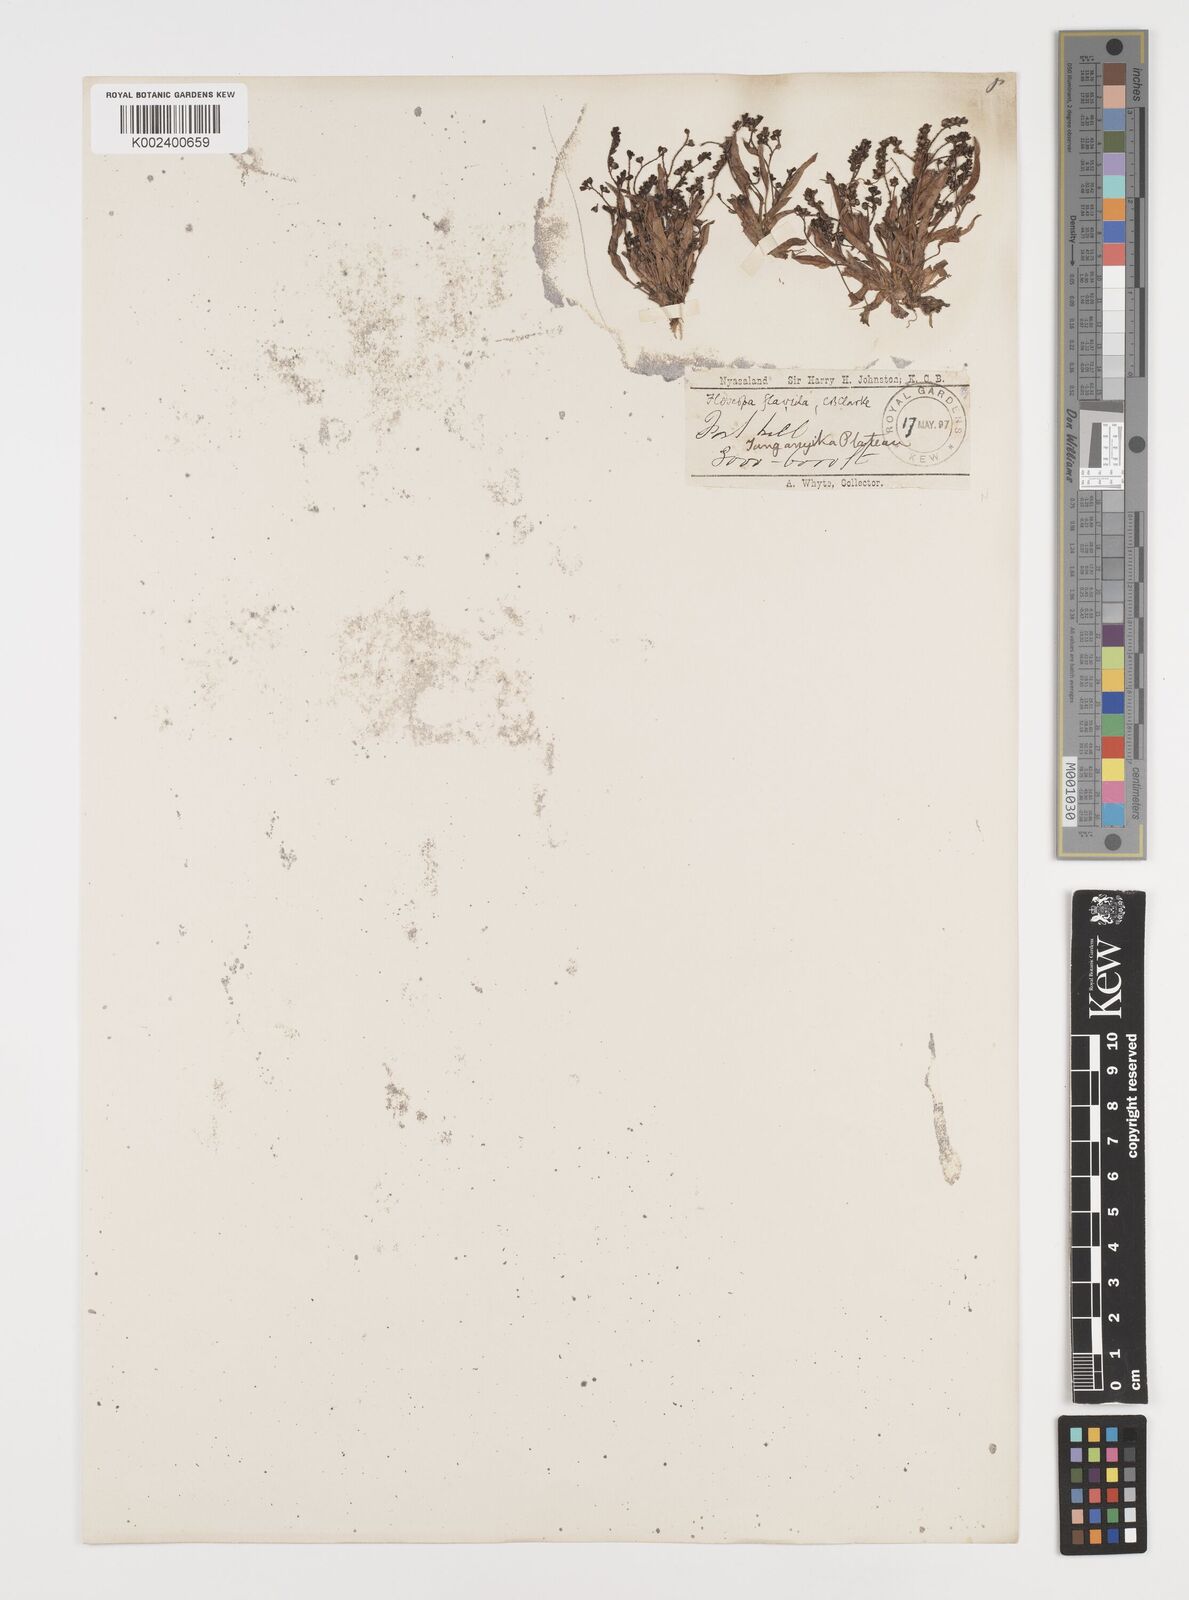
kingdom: Plantae
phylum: Tracheophyta
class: Liliopsida
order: Commelinales
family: Commelinaceae
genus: Floscopa
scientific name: Floscopa flavida
